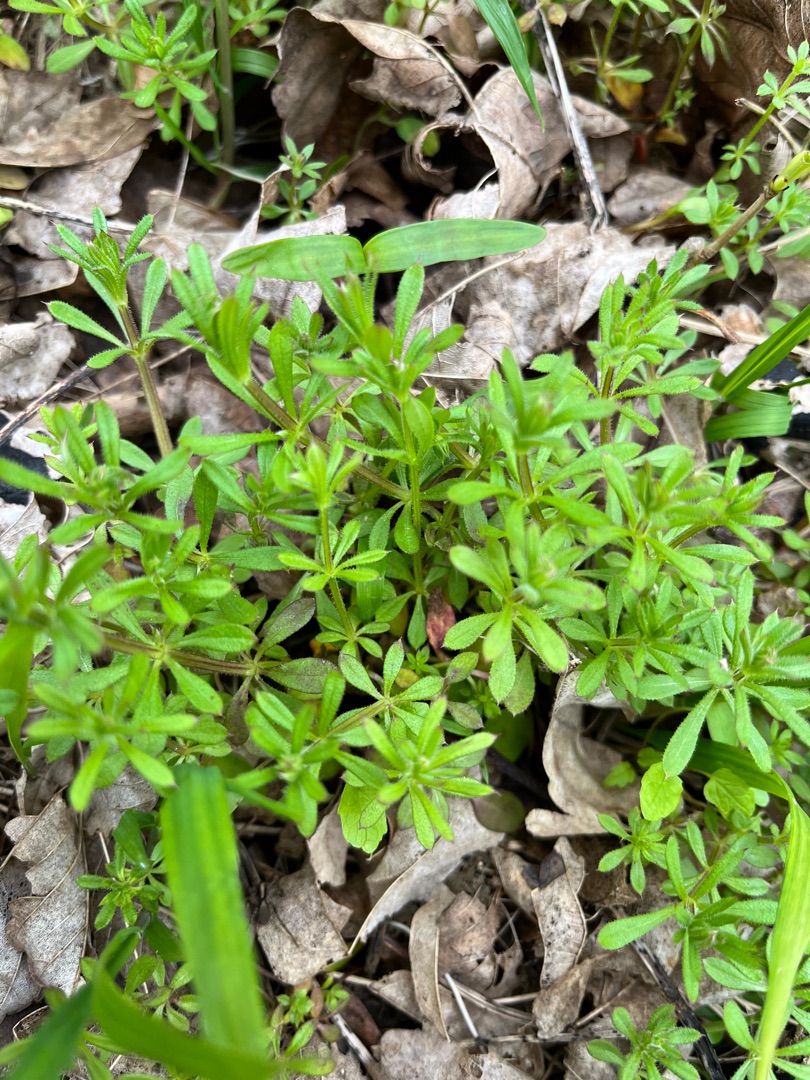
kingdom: Plantae
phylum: Tracheophyta
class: Magnoliopsida
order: Gentianales
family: Rubiaceae
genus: Galium
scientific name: Galium aparine
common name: Burre-snerre
